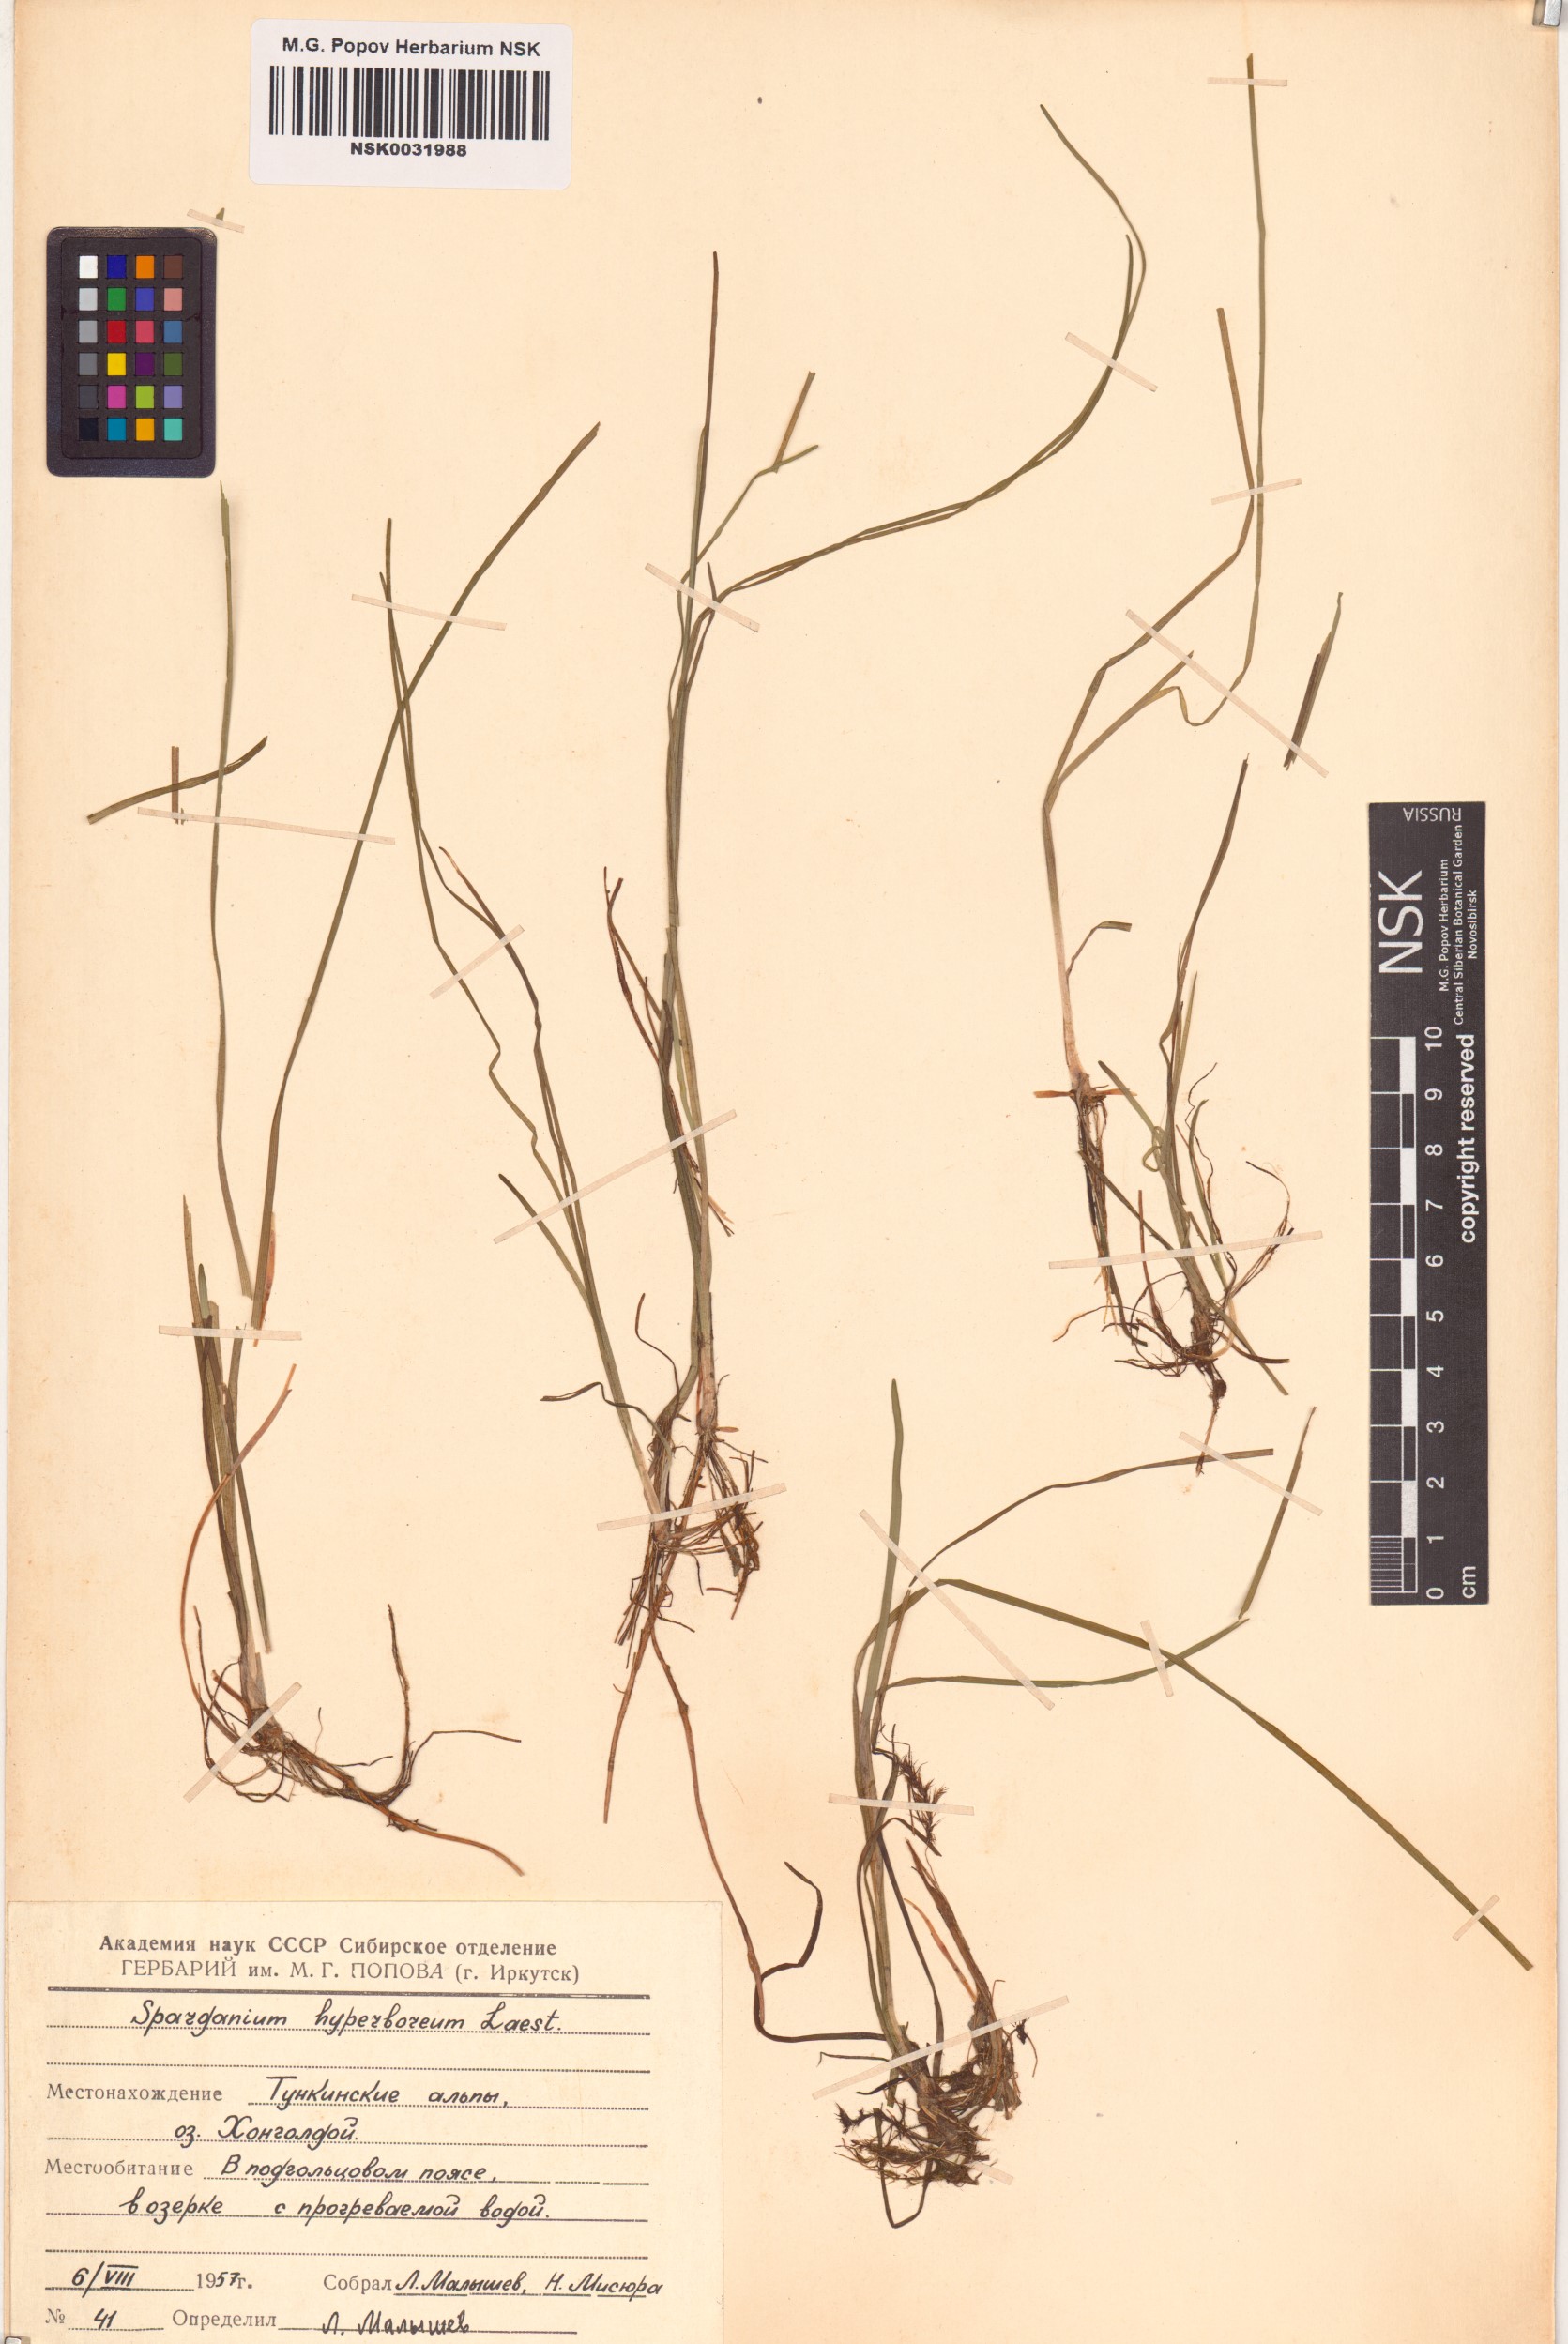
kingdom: Plantae
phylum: Tracheophyta
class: Liliopsida
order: Poales
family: Typhaceae
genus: Sparganium
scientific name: Sparganium hyperboreum
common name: Arctic burreed
